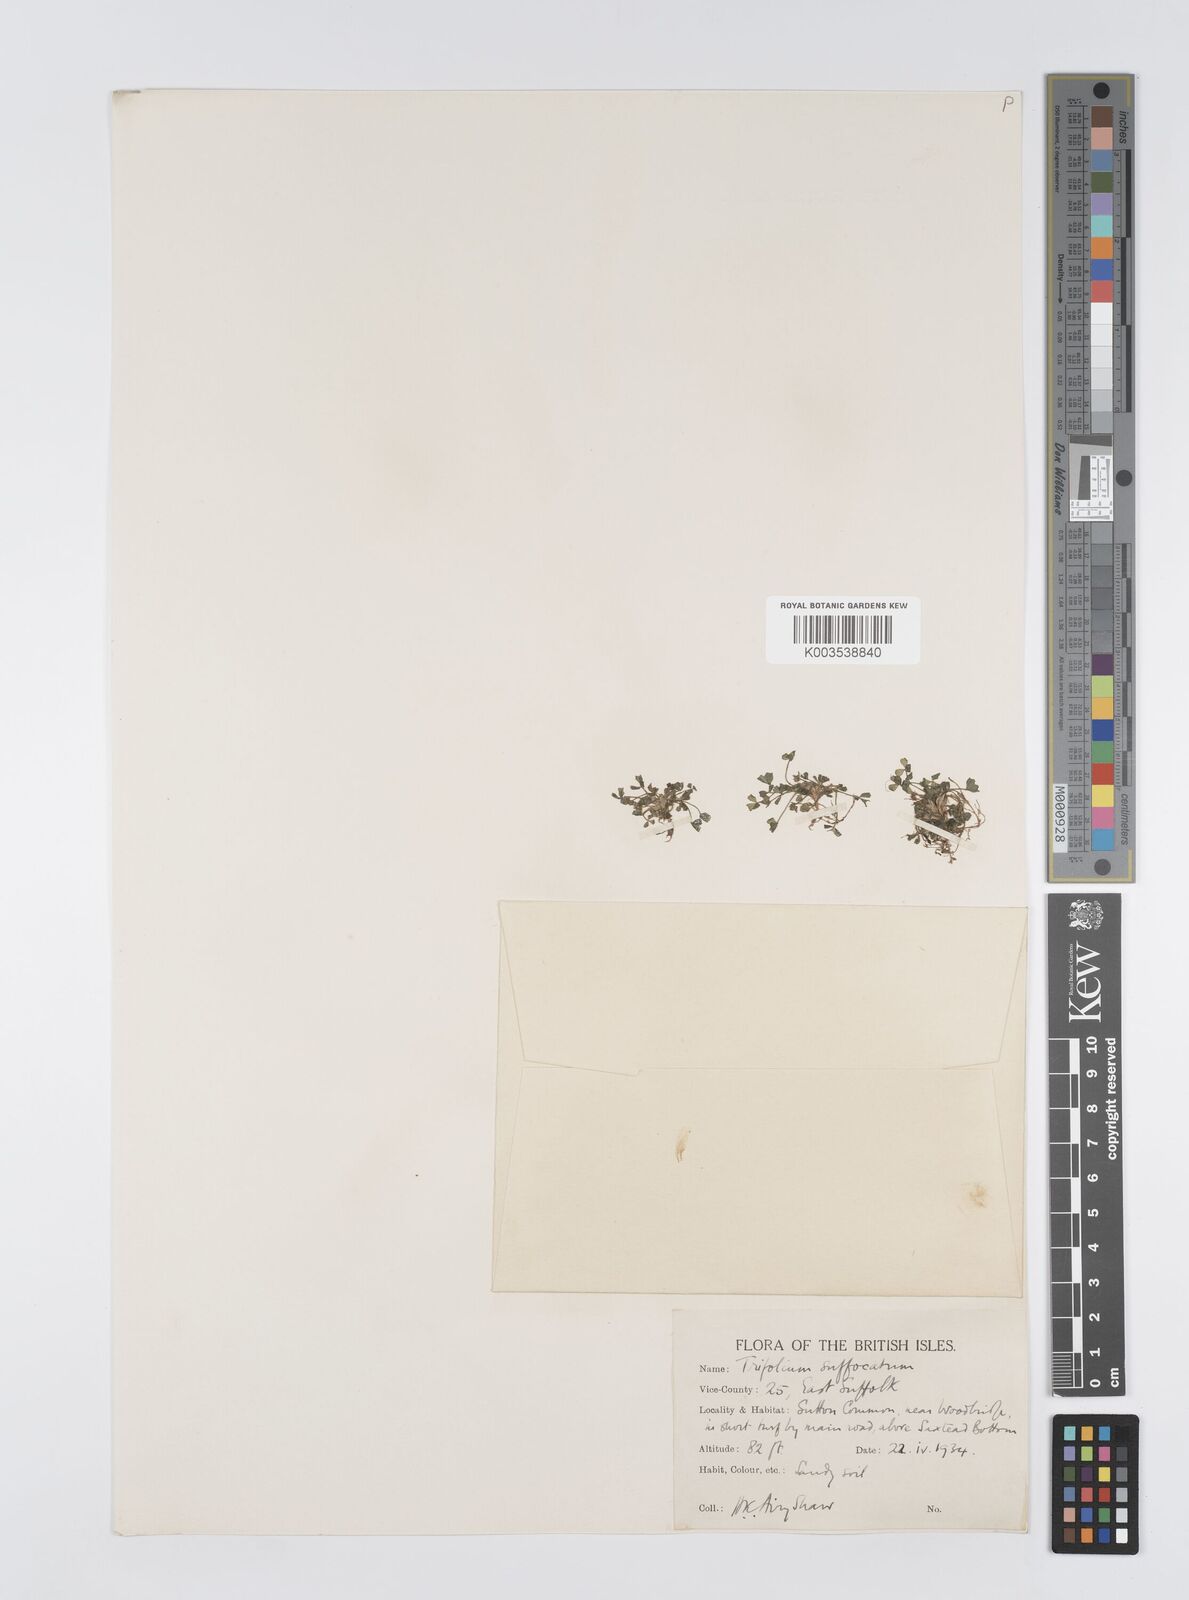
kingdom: Plantae
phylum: Tracheophyta
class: Magnoliopsida
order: Fabales
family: Fabaceae
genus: Trifolium
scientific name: Trifolium suffocatum
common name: Suffocated clover
